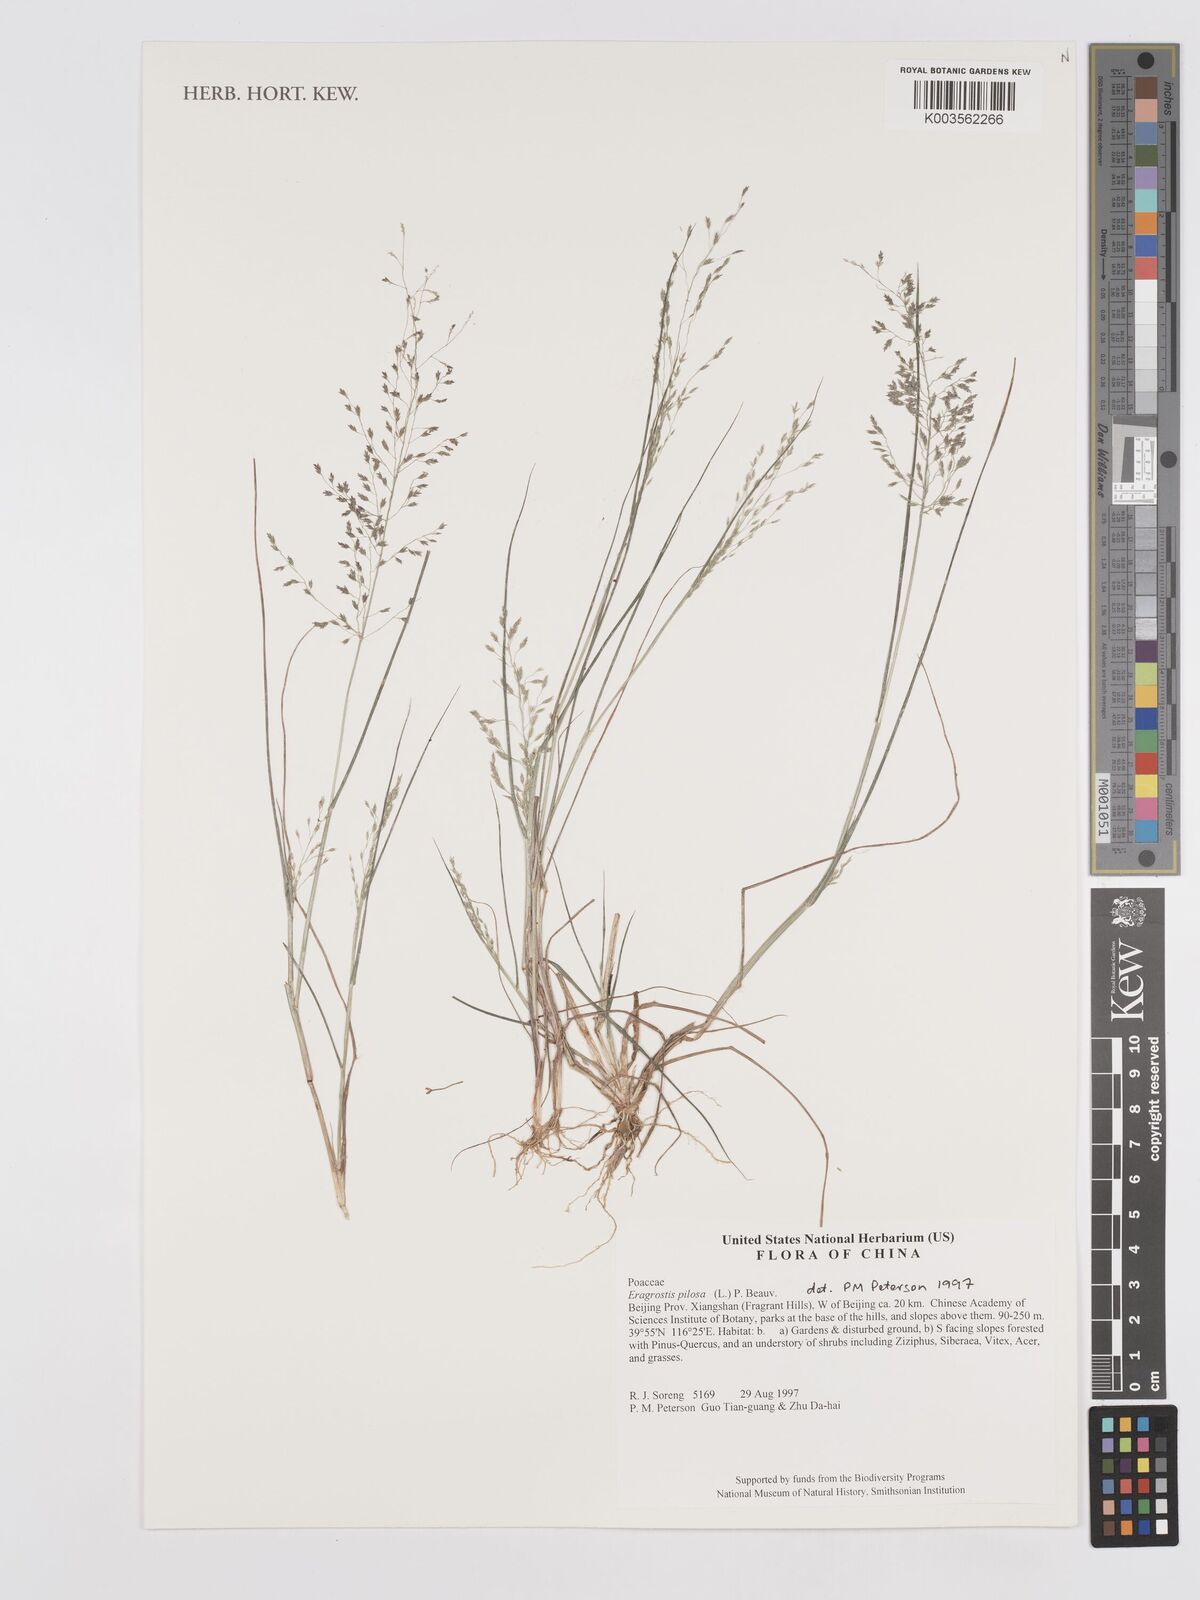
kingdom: Plantae
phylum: Tracheophyta
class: Liliopsida
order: Poales
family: Poaceae
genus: Eragrostis
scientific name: Eragrostis pilosa
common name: Indian lovegrass
